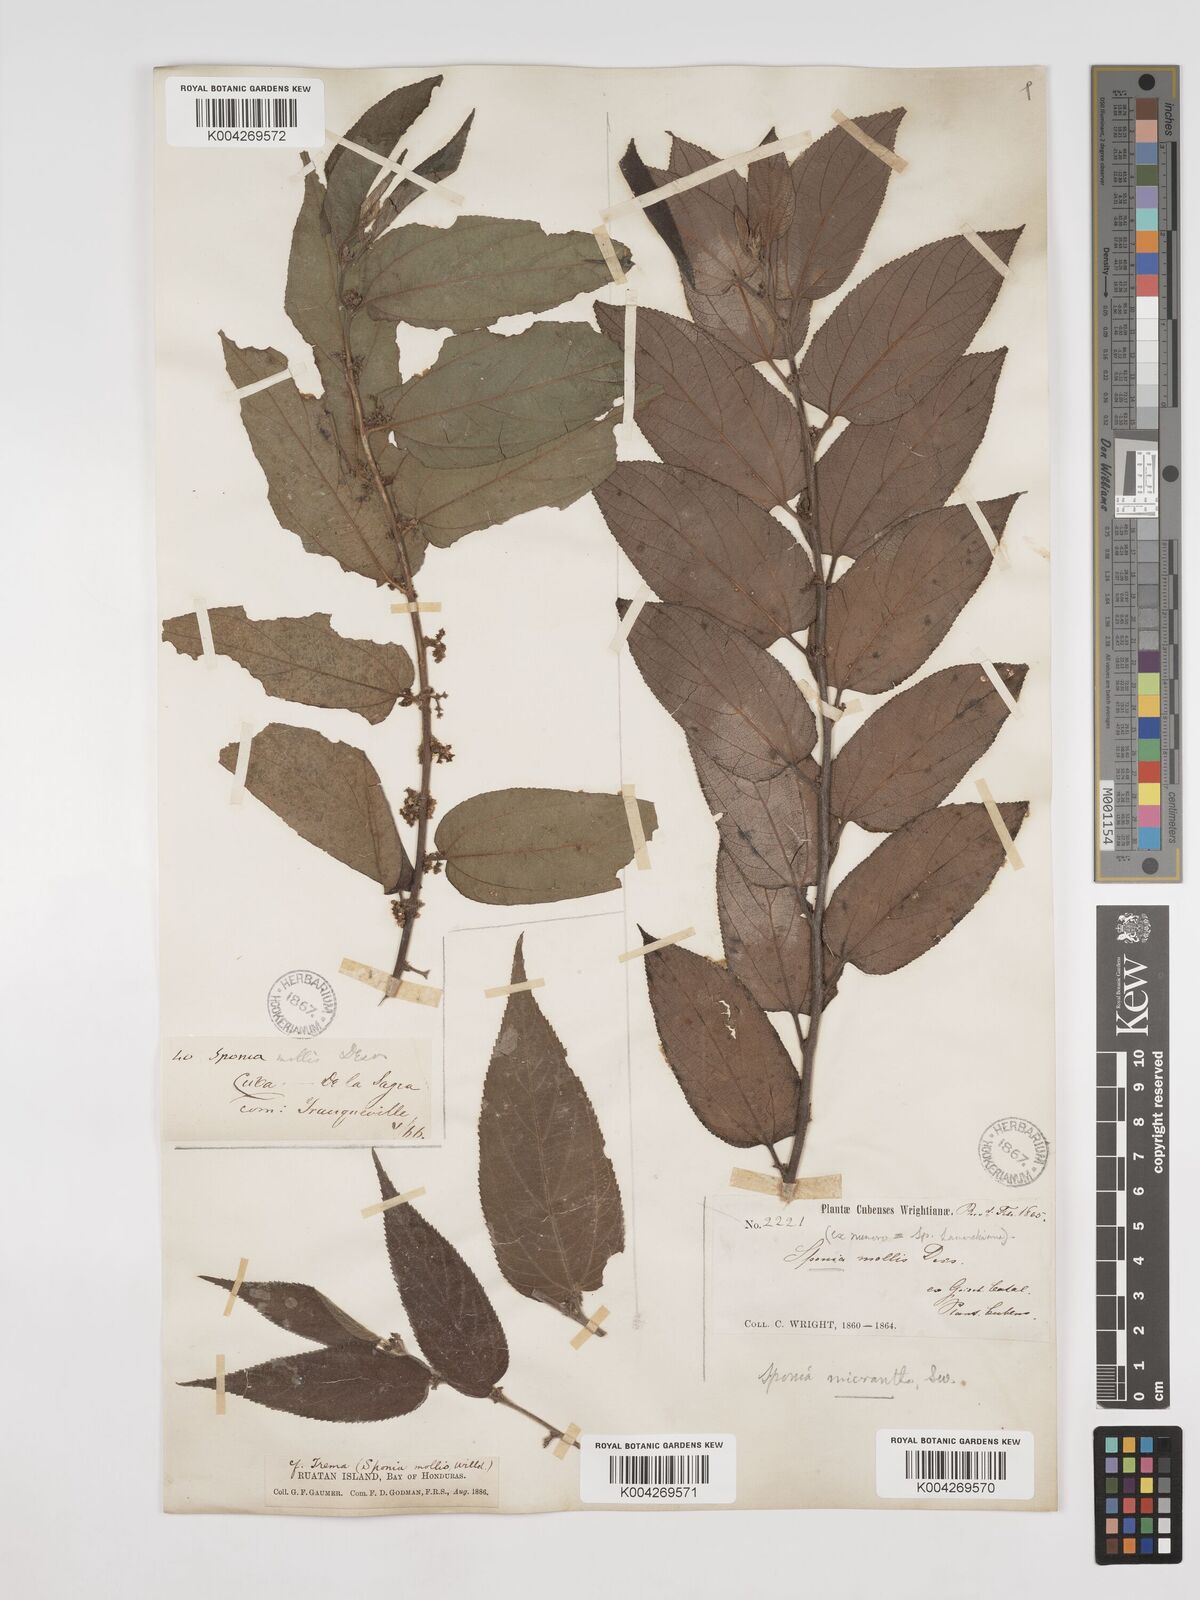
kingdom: Plantae
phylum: Tracheophyta
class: Magnoliopsida
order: Rosales
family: Cannabaceae
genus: Trema
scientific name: Trema micranthum
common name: Jamaican nettletree
